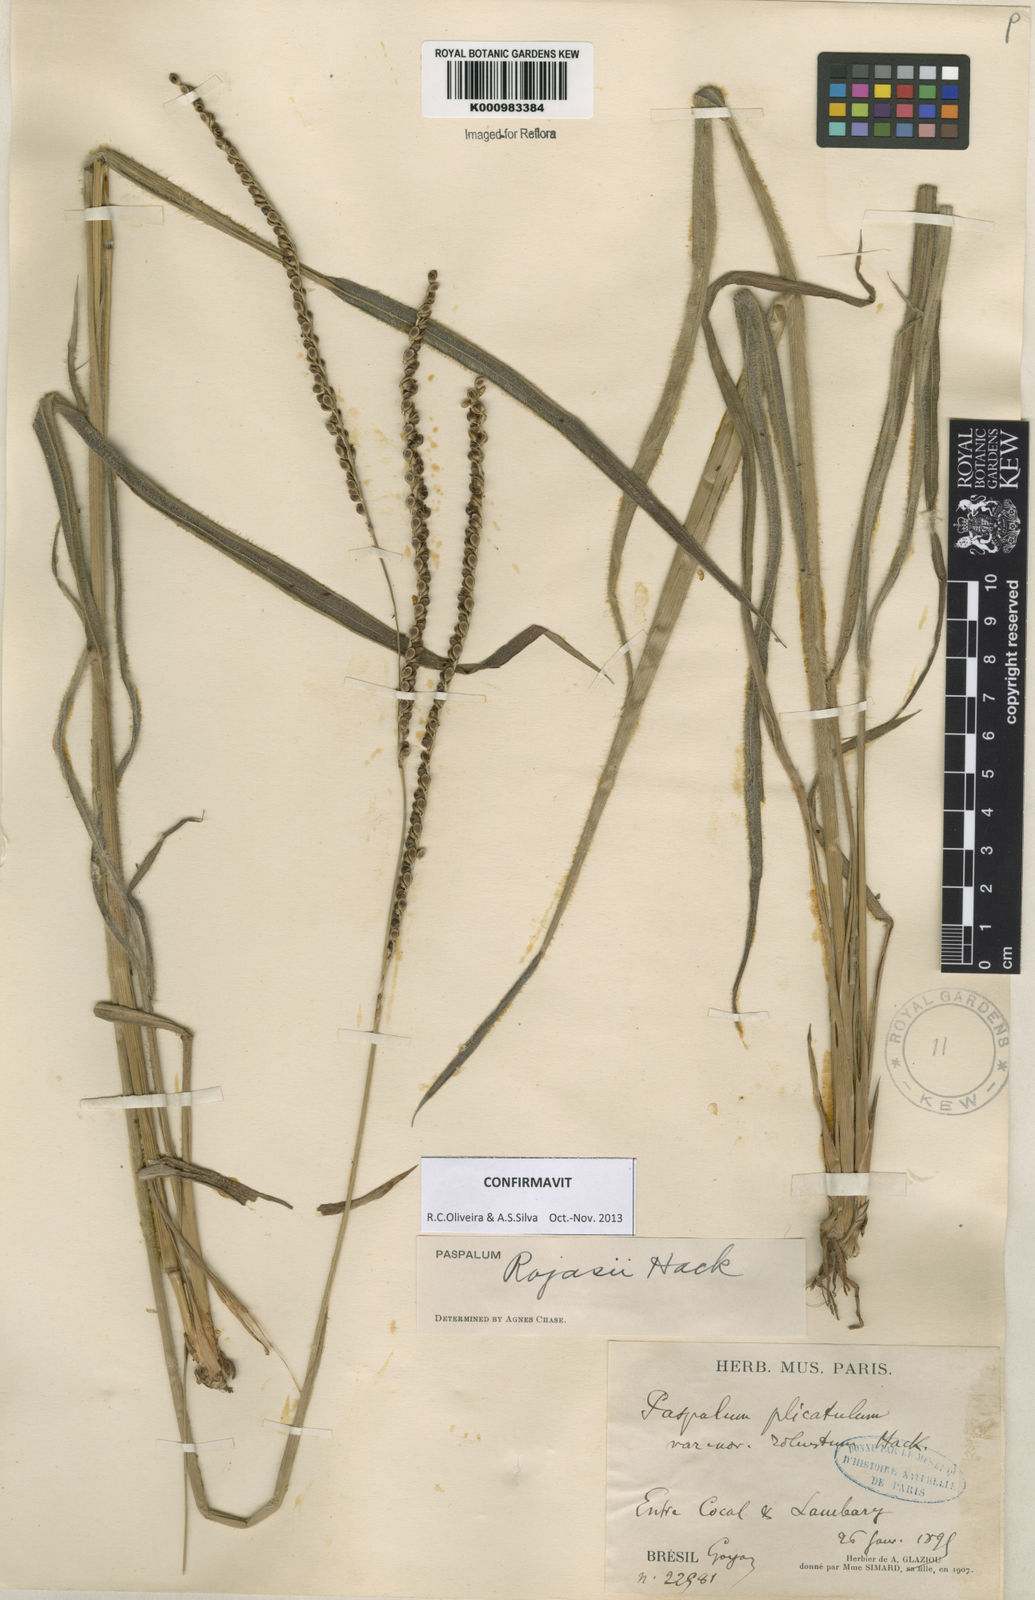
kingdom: Plantae
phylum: Tracheophyta
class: Liliopsida
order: Poales
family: Poaceae
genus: Paspalum
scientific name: Paspalum guenoarum
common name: Wintergreen paspalum
